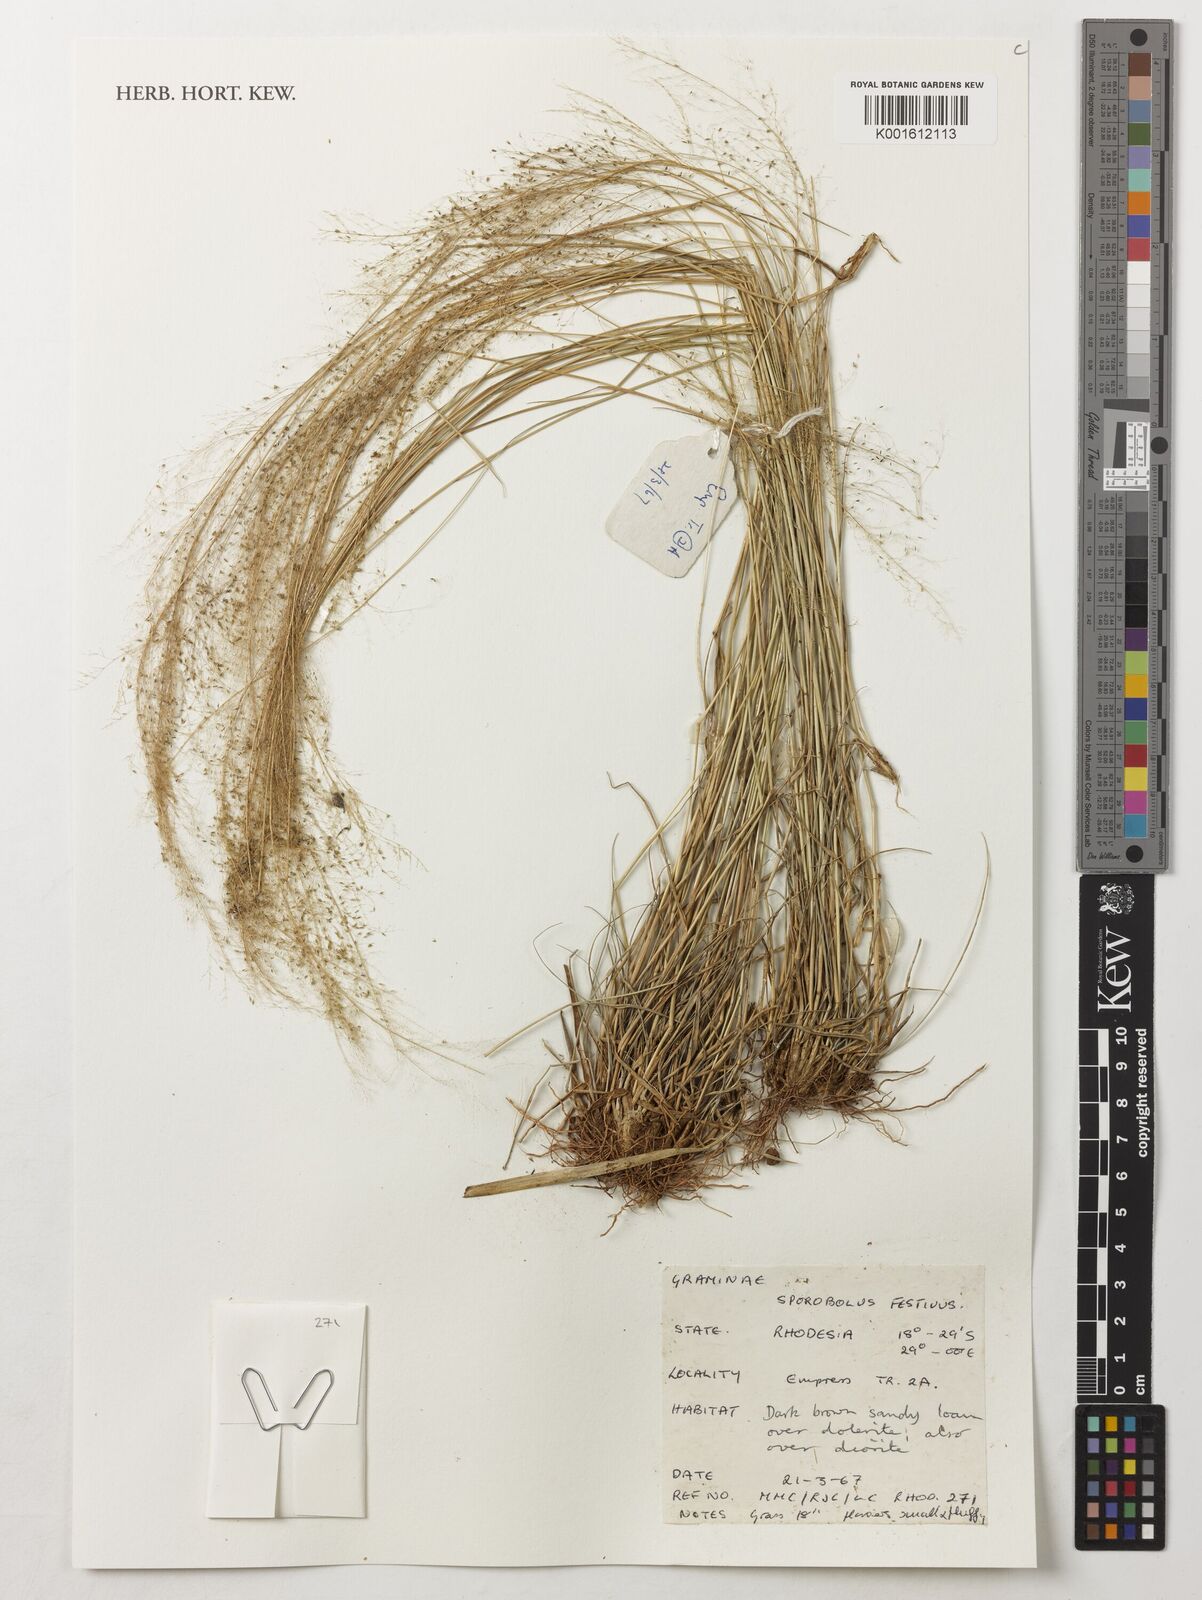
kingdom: Plantae
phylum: Tracheophyta
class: Liliopsida
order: Poales
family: Poaceae
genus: Sporobolus
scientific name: Sporobolus festivus
